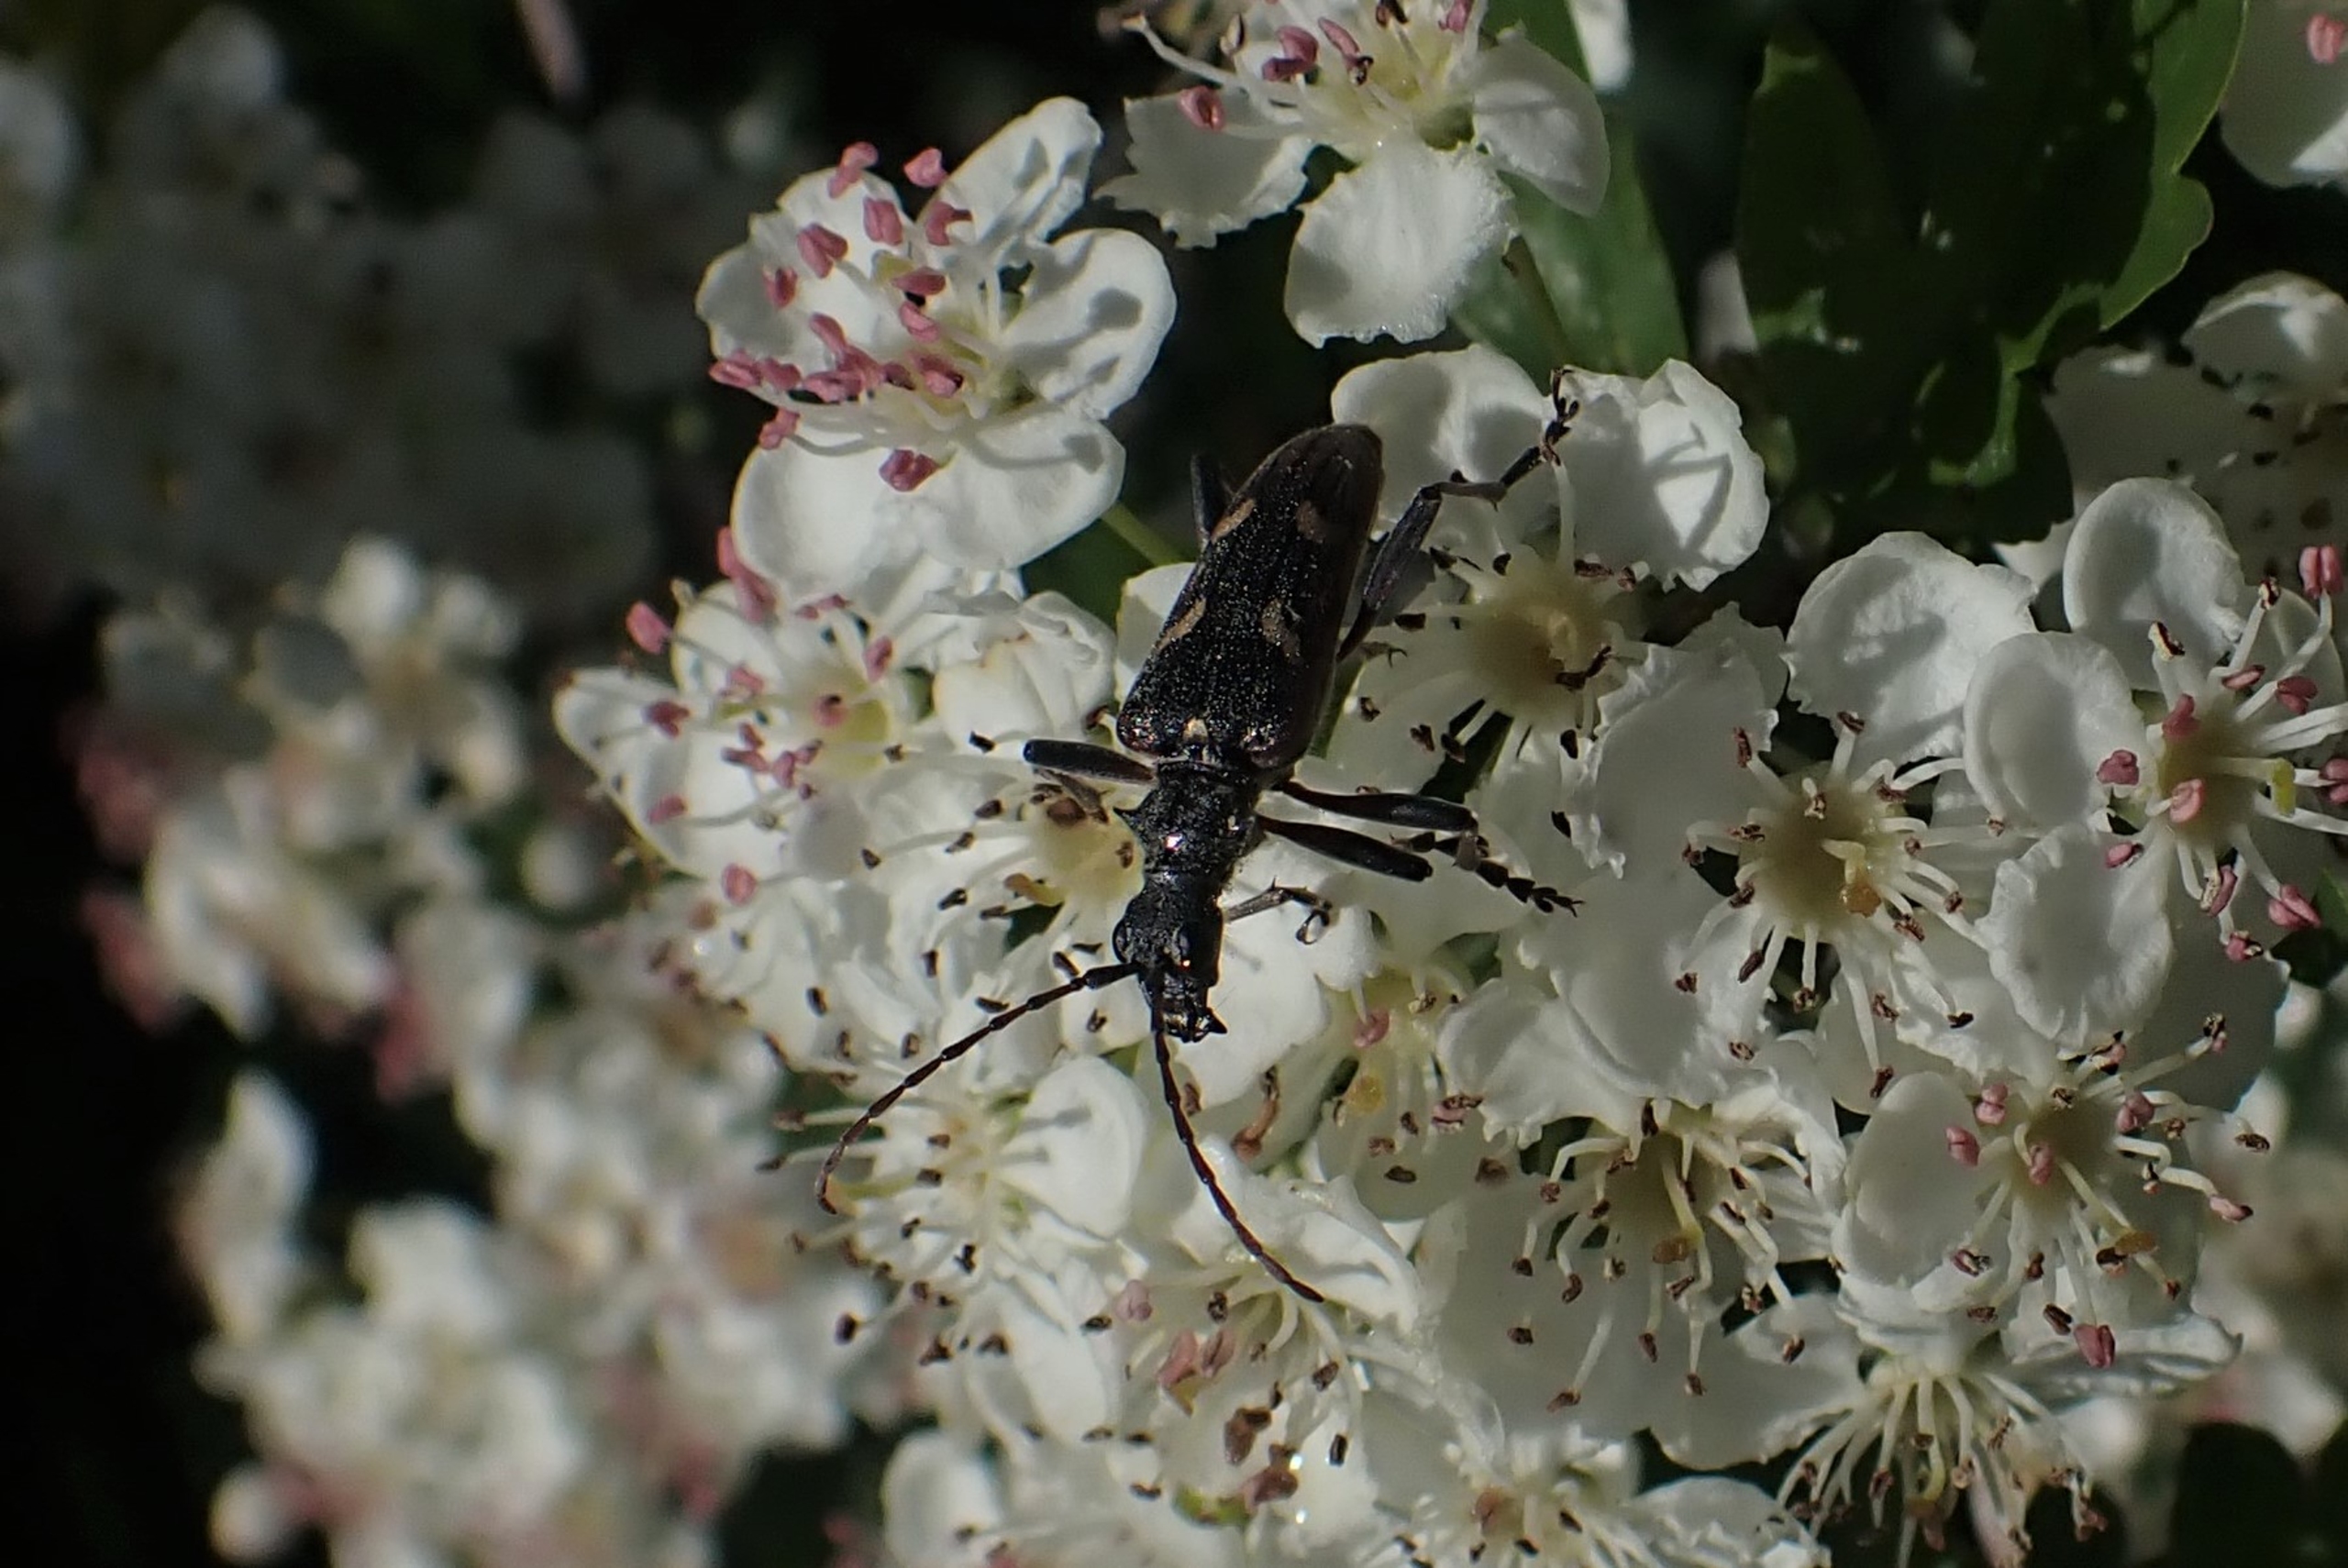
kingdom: Animalia
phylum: Arthropoda
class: Insecta
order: Coleoptera
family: Cerambycidae
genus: Rhagium
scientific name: Rhagium bifasciatum
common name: Båndet tandbuk
